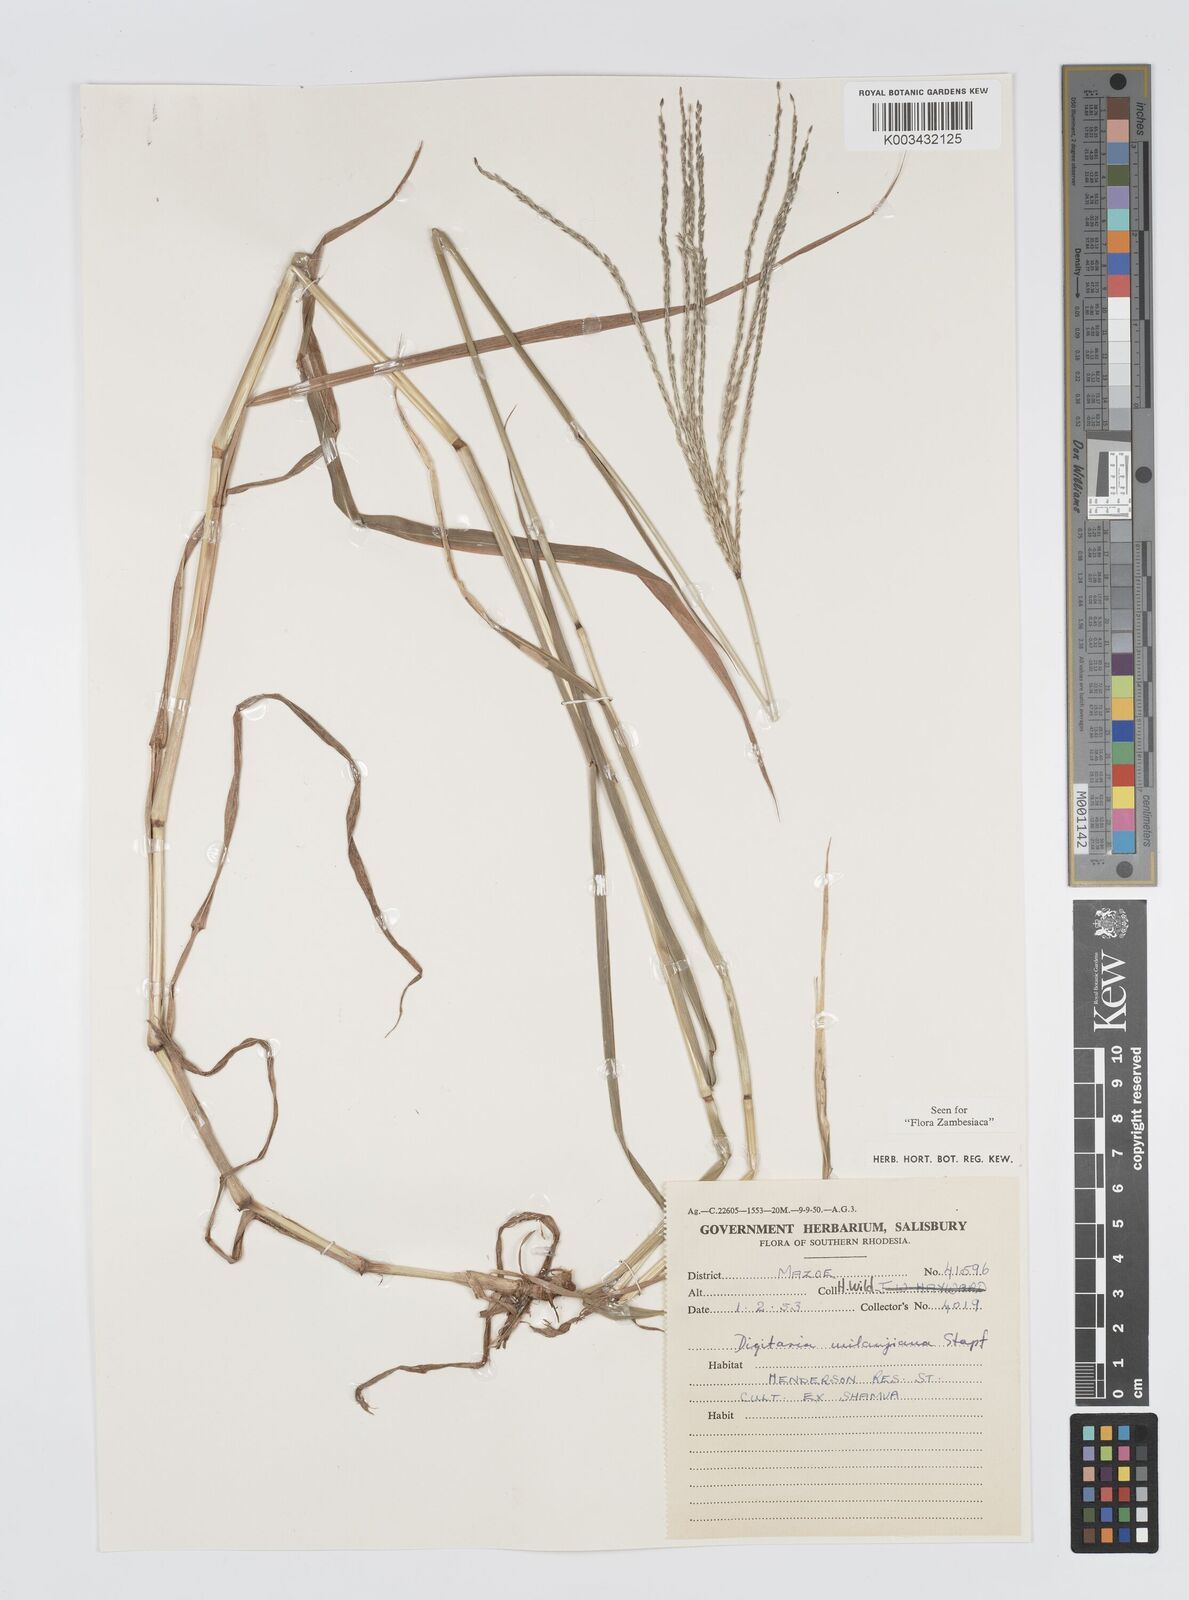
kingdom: Plantae
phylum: Tracheophyta
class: Liliopsida
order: Poales
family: Poaceae
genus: Digitaria
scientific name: Digitaria milanjiana
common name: Madagascar crabgrass
